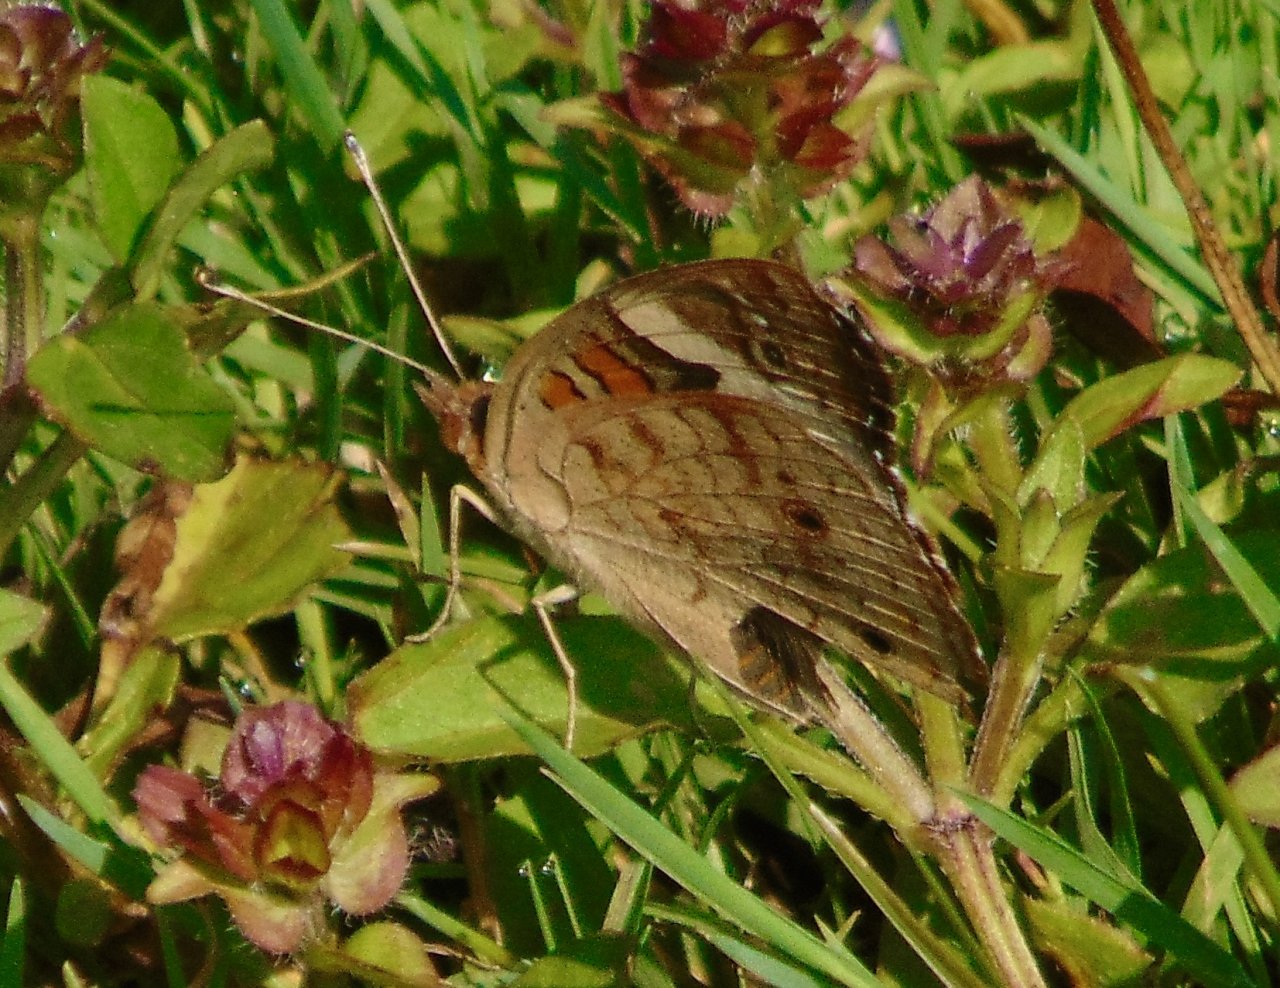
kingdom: Animalia
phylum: Arthropoda
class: Insecta
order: Lepidoptera
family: Nymphalidae
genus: Junonia
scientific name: Junonia coenia
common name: Common Buckeye
